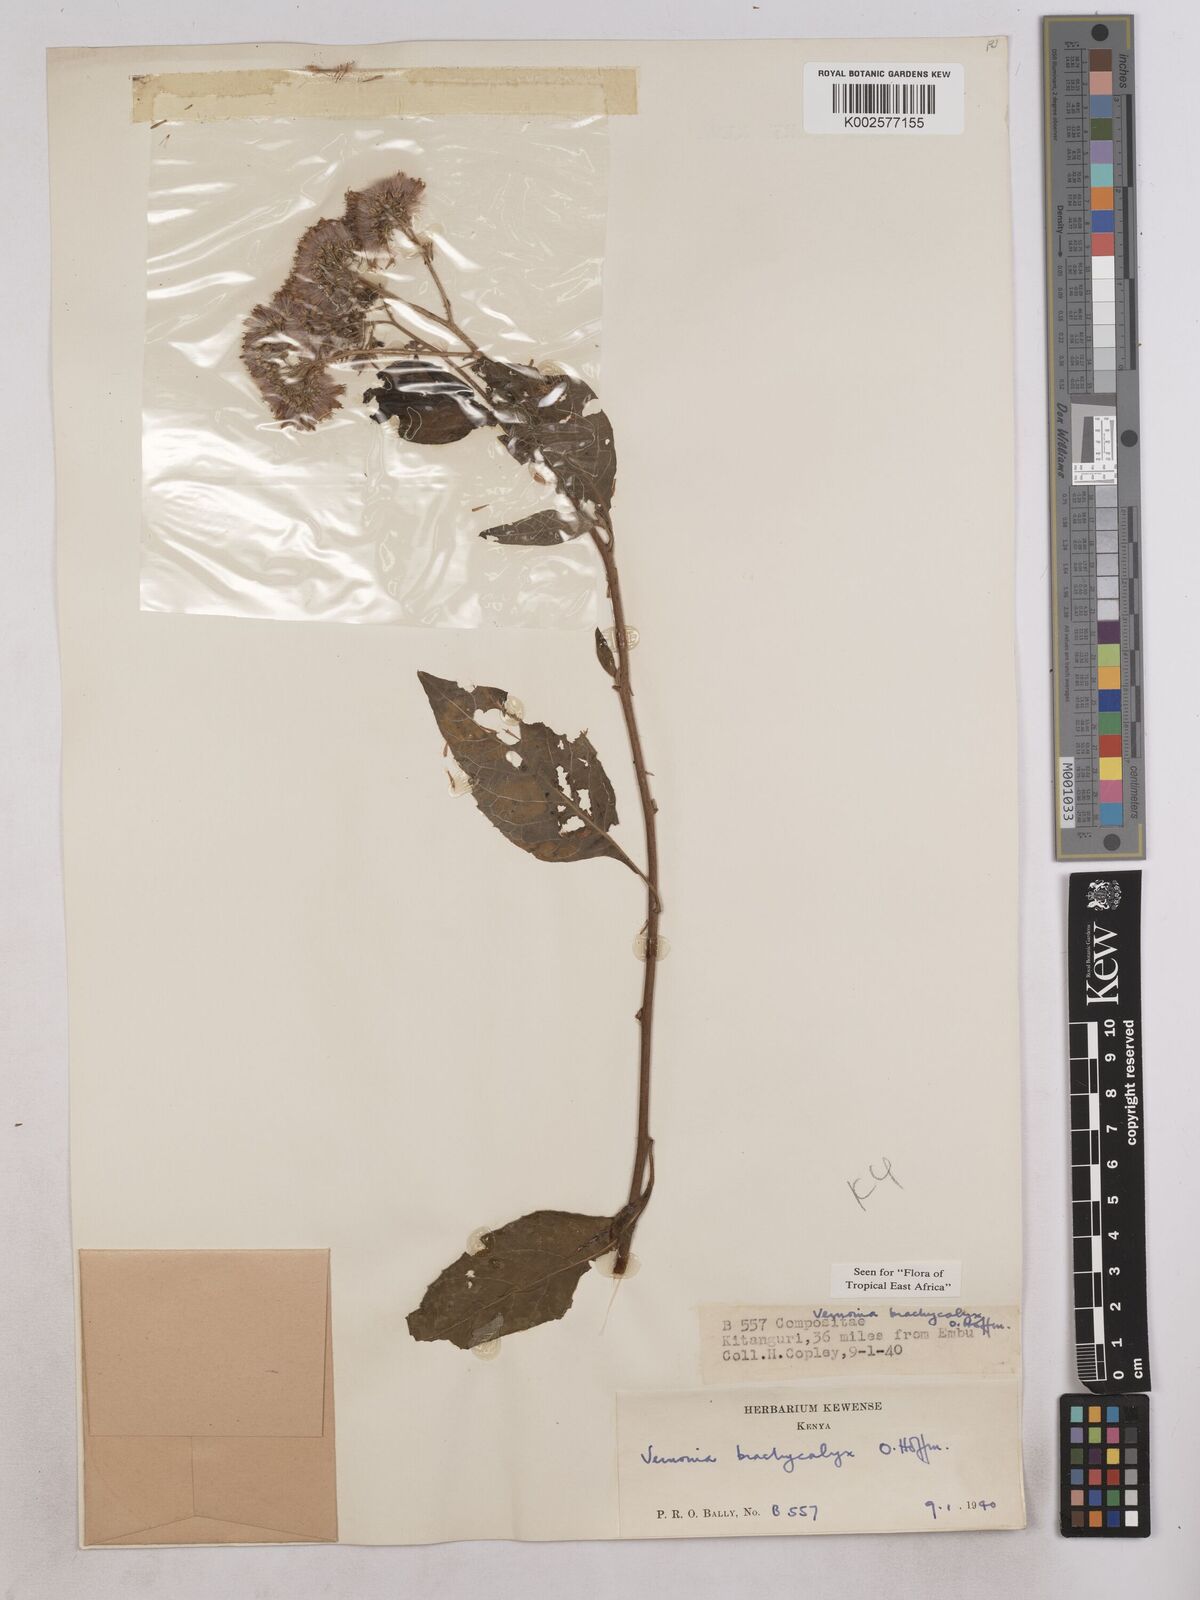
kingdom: Plantae
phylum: Tracheophyta
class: Magnoliopsida
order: Asterales
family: Asteraceae
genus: Hoffmannanthus
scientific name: Hoffmannanthus abbotianus
